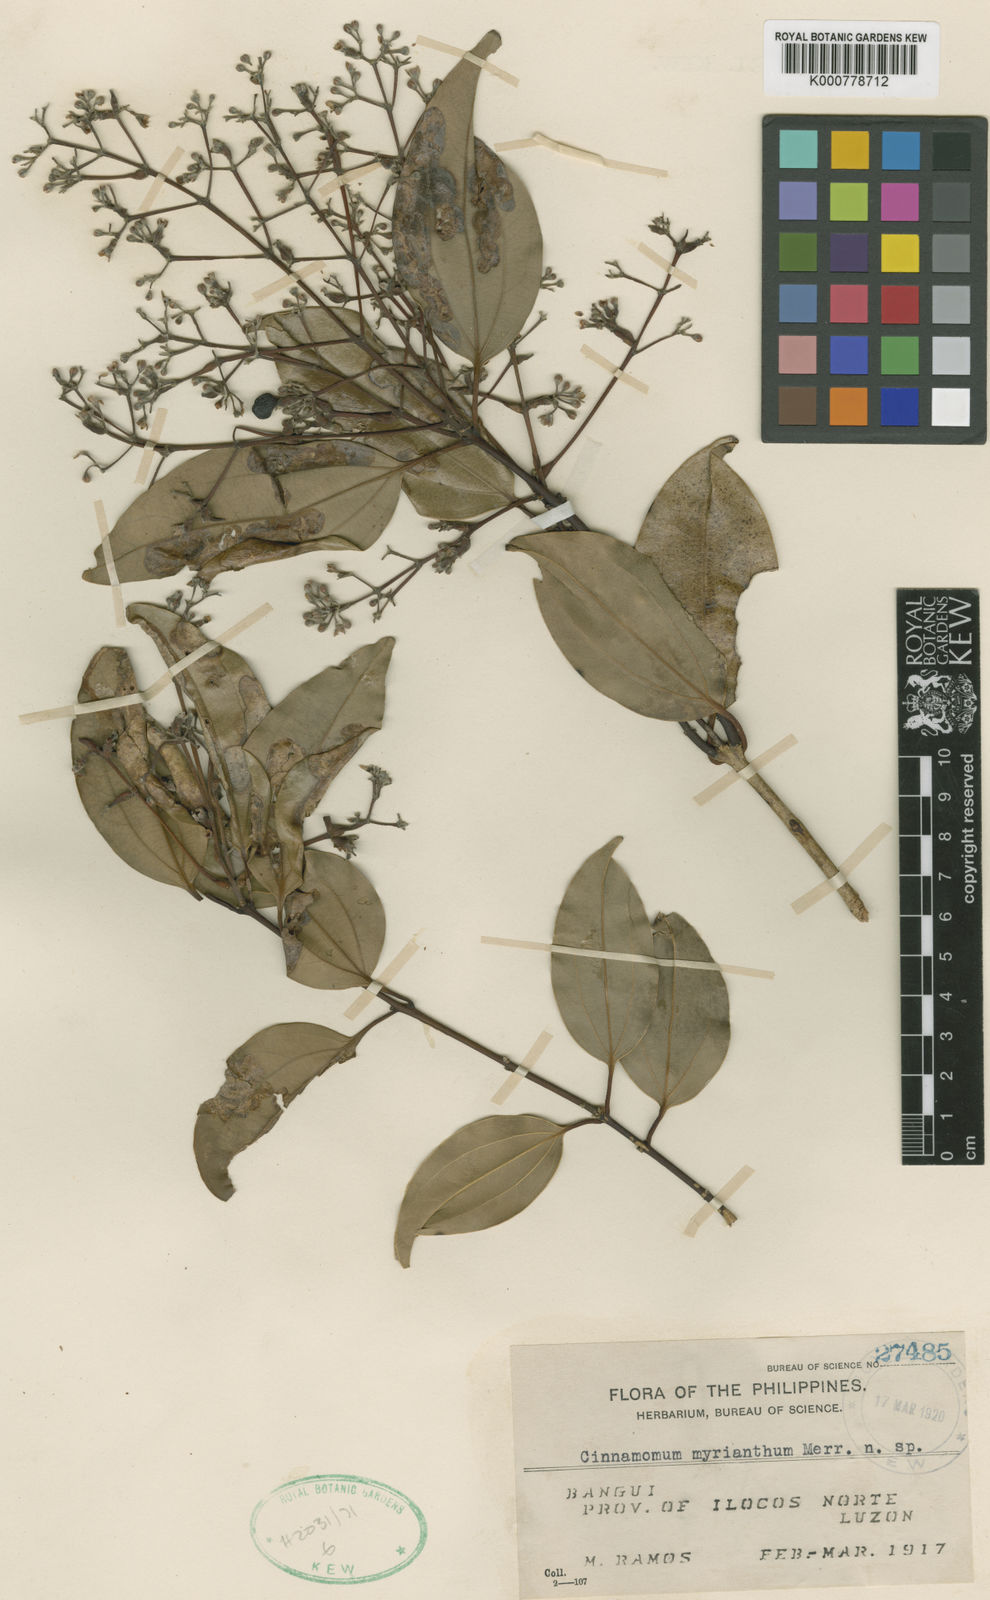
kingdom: Plantae
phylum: Tracheophyta
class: Magnoliopsida
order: Laurales
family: Lauraceae
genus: Cinnamomum
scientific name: Cinnamomum myrianthum
